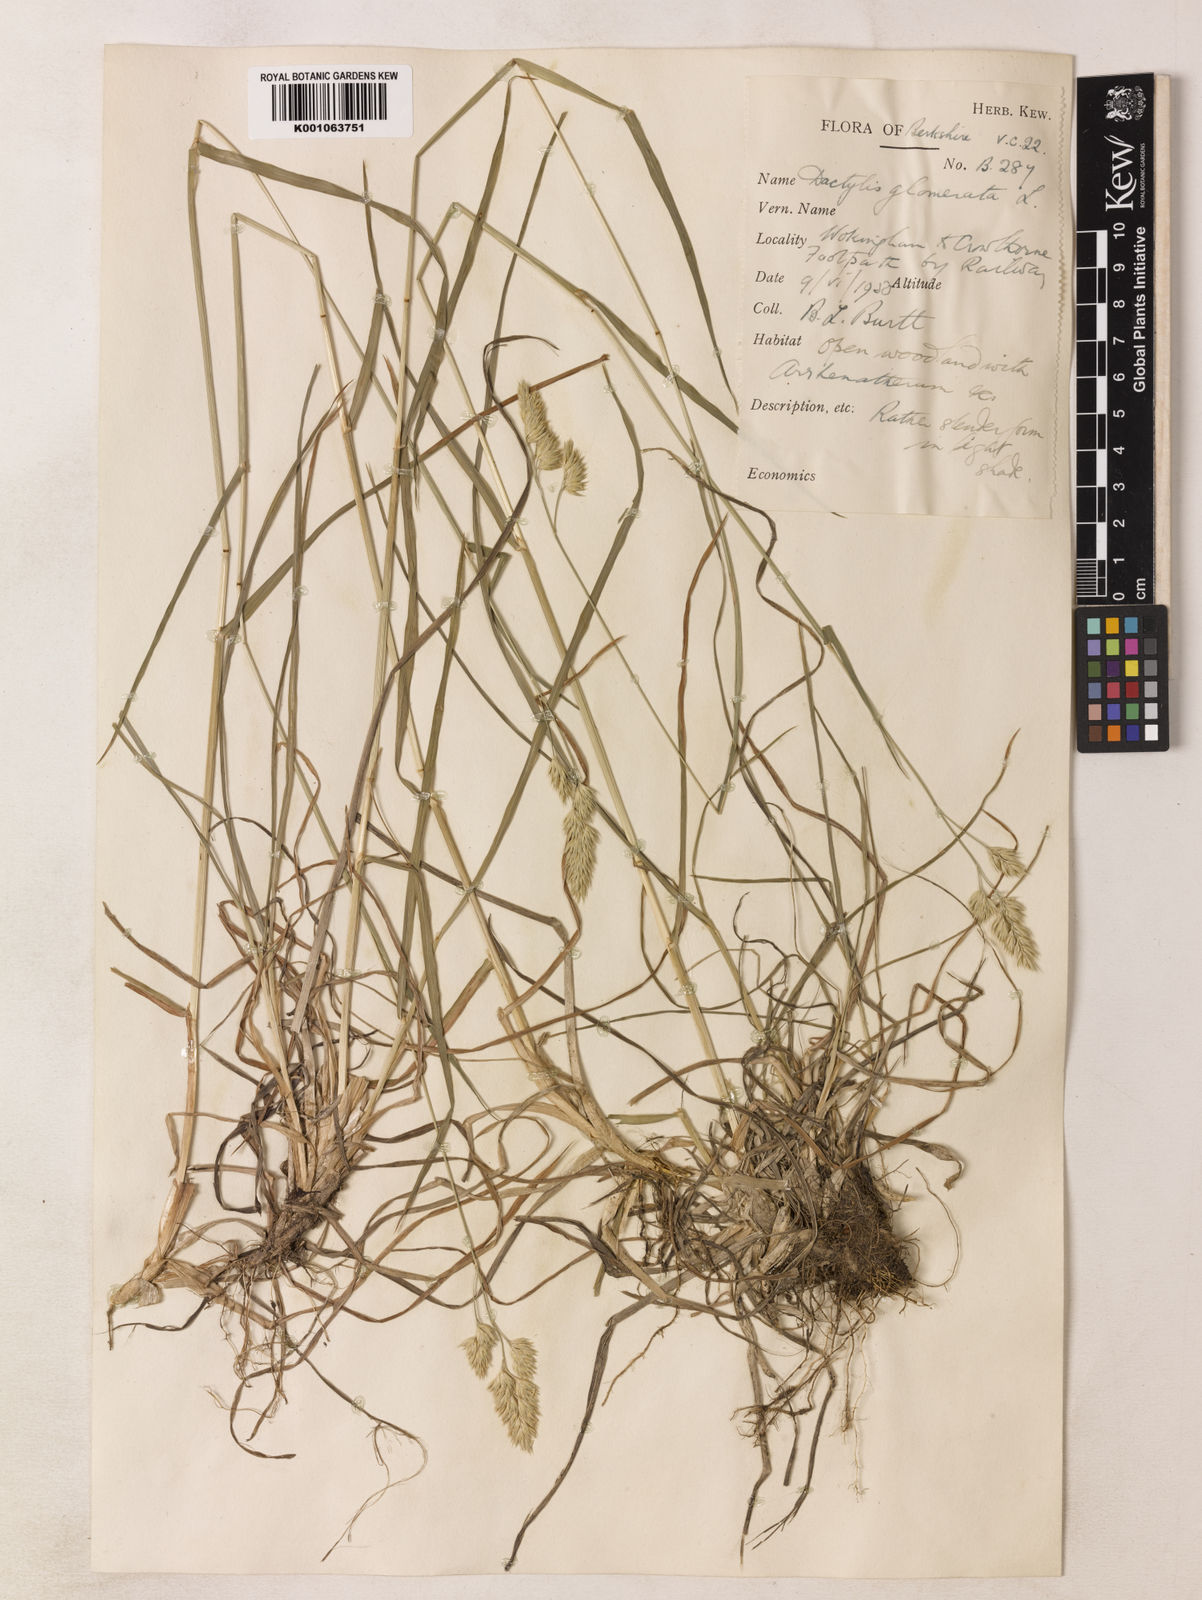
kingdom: Plantae
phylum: Tracheophyta
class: Liliopsida
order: Poales
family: Poaceae
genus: Dactylis
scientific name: Dactylis glomerata
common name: Orchardgrass
